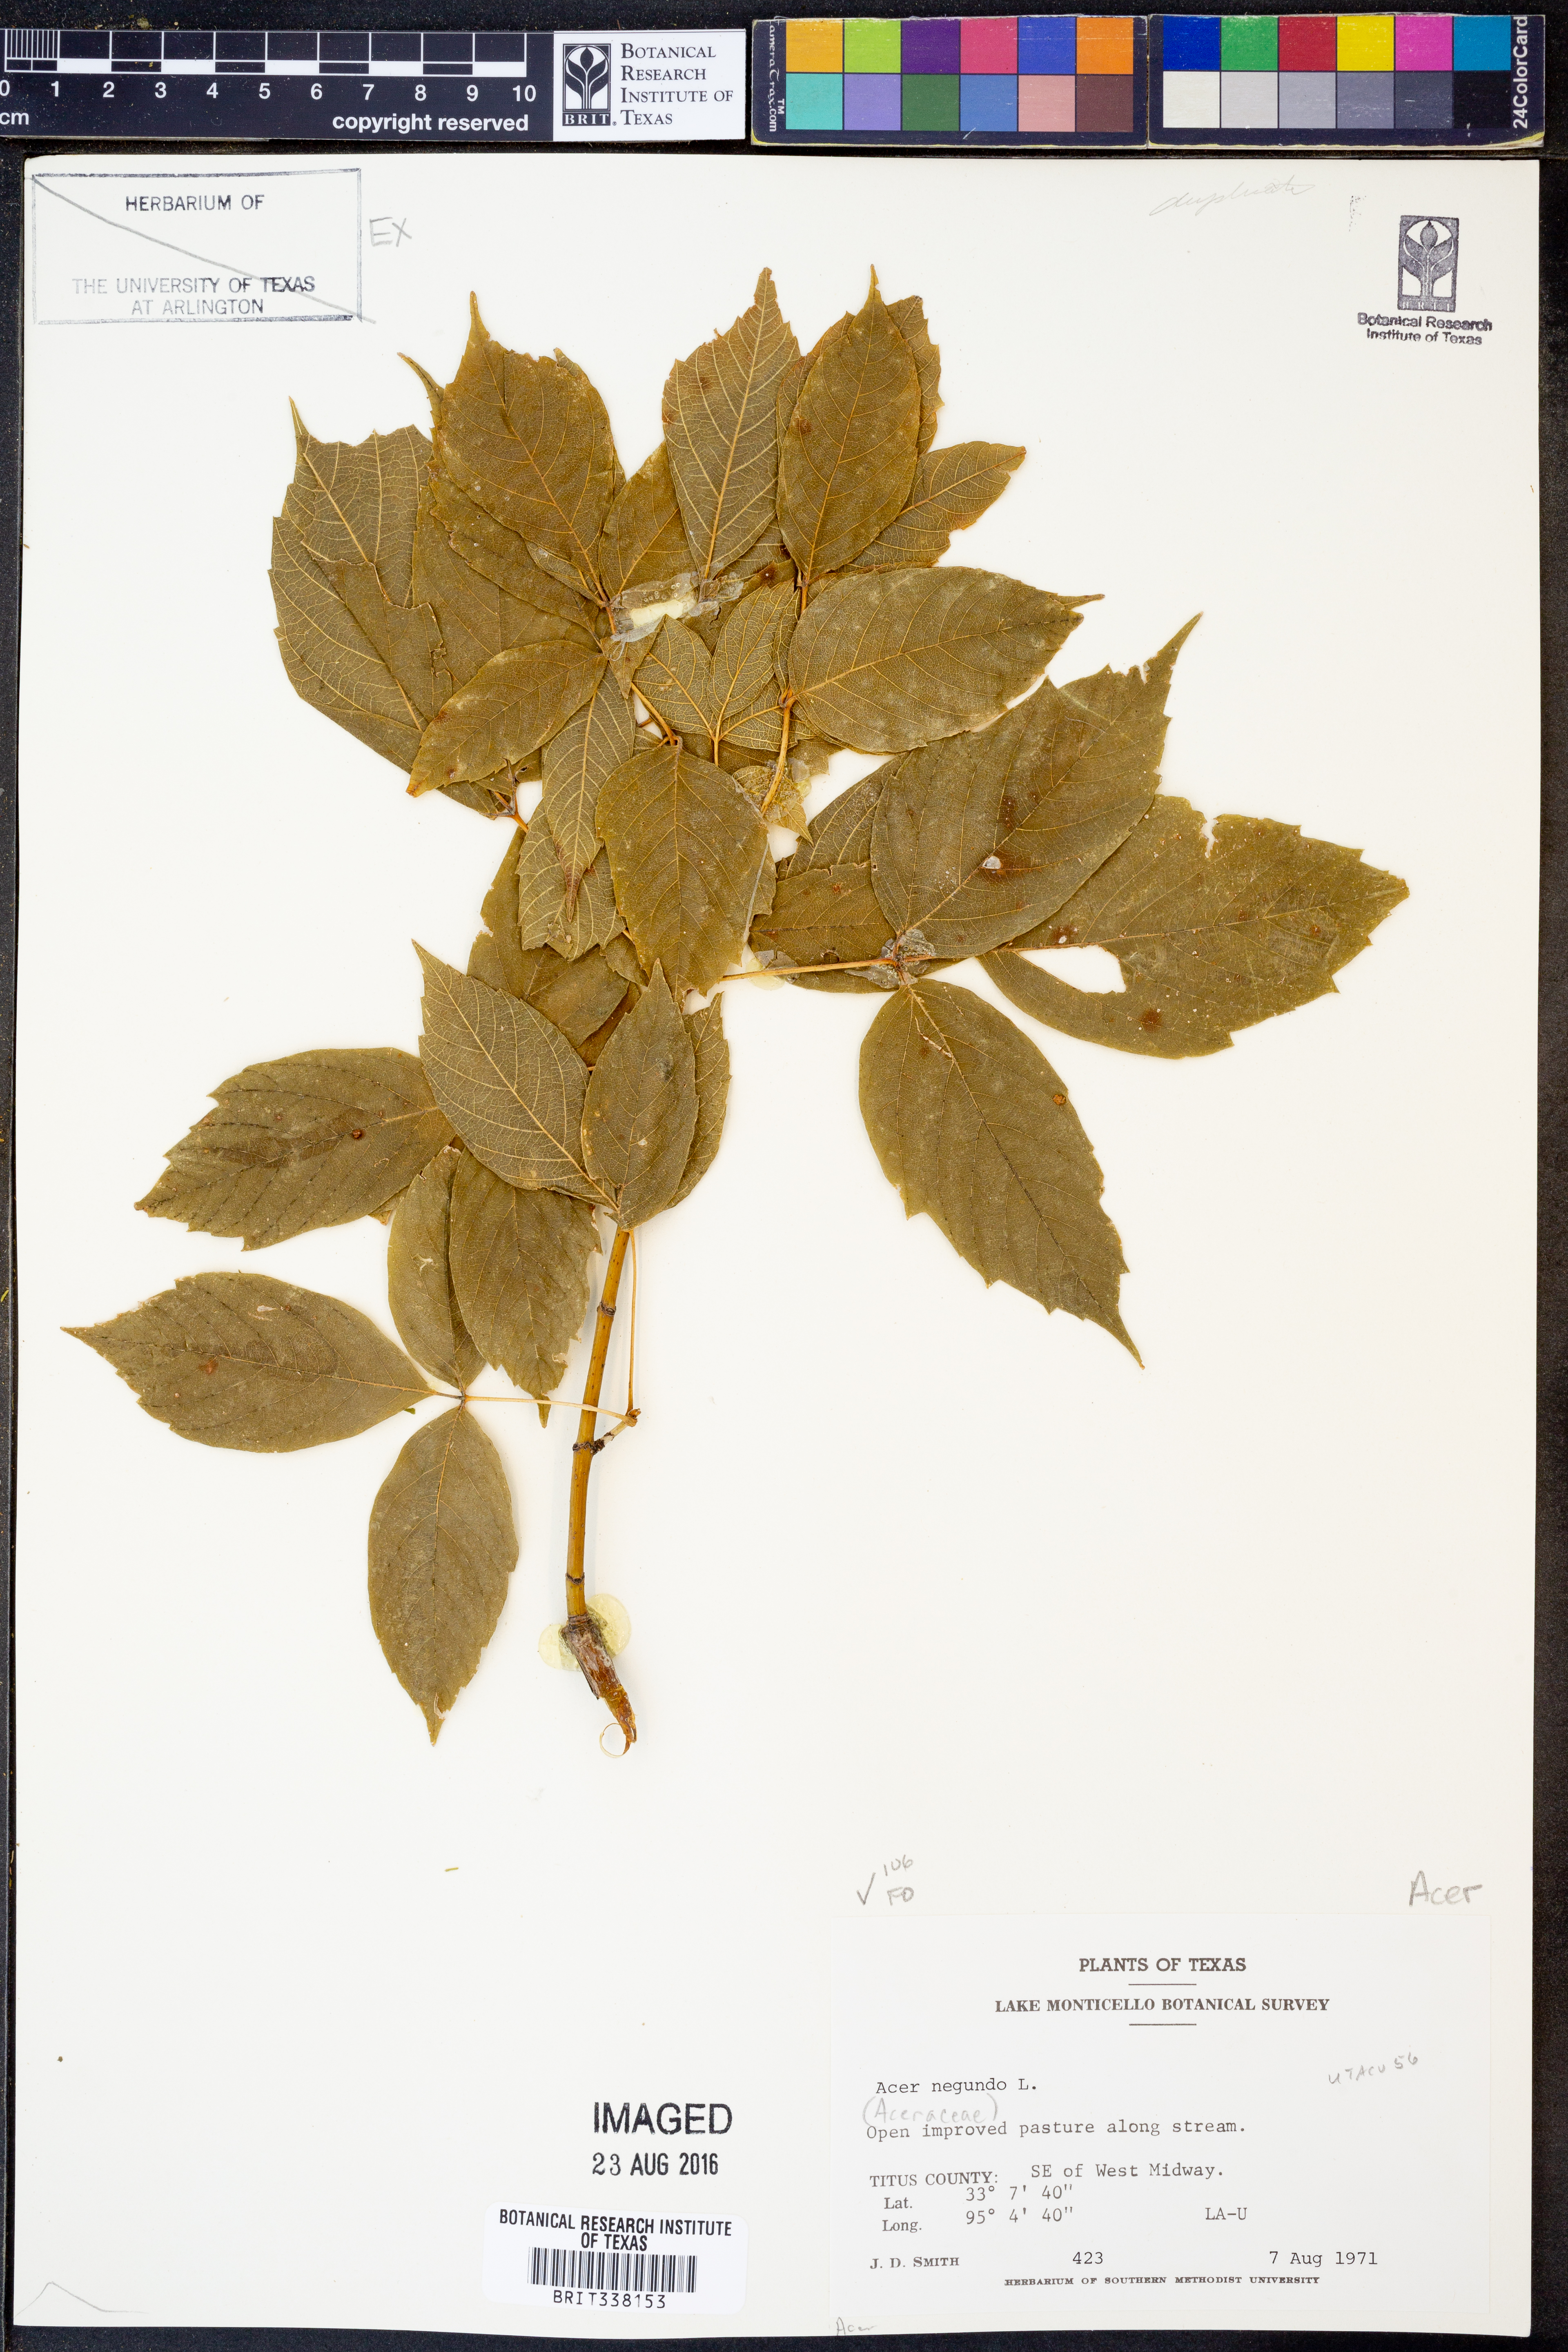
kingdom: Plantae
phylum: Tracheophyta
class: Magnoliopsida
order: Sapindales
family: Sapindaceae
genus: Acer
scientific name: Acer negundo
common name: Ashleaf maple
